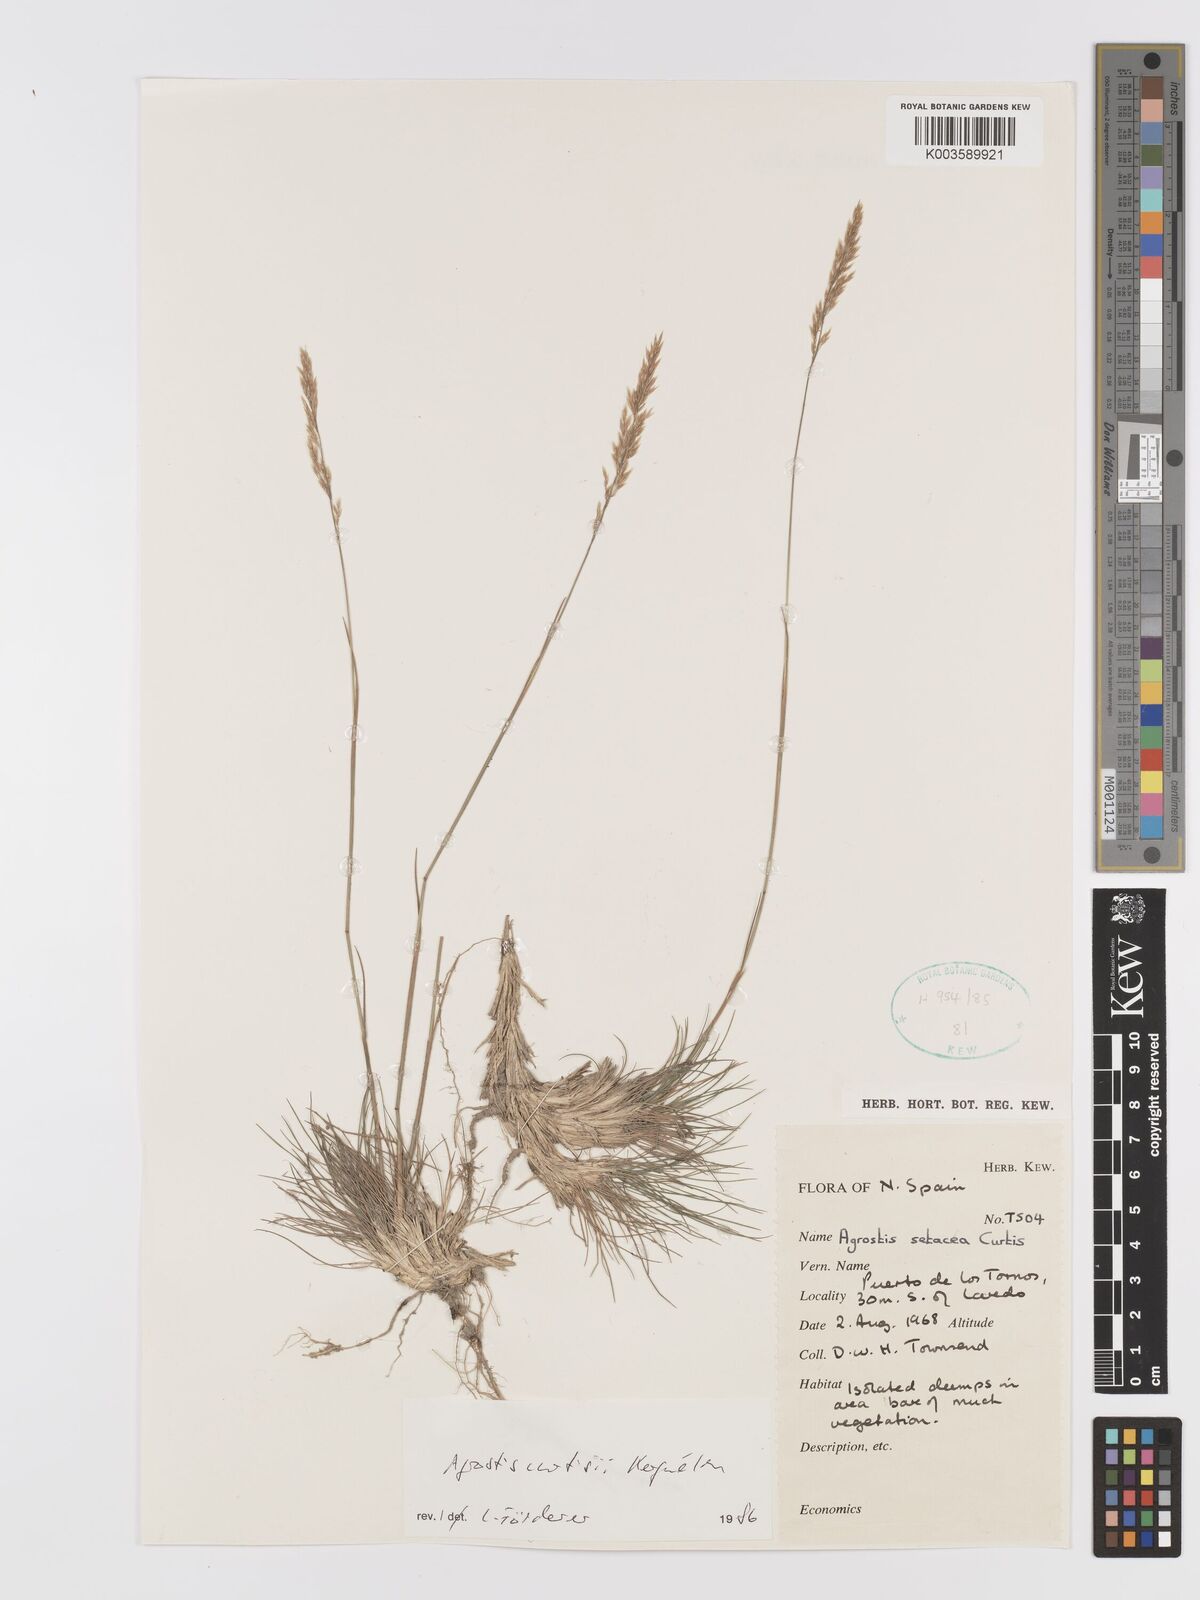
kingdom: Plantae
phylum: Tracheophyta
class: Liliopsida
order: Poales
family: Poaceae
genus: Alpagrostis
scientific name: Alpagrostis setacea
